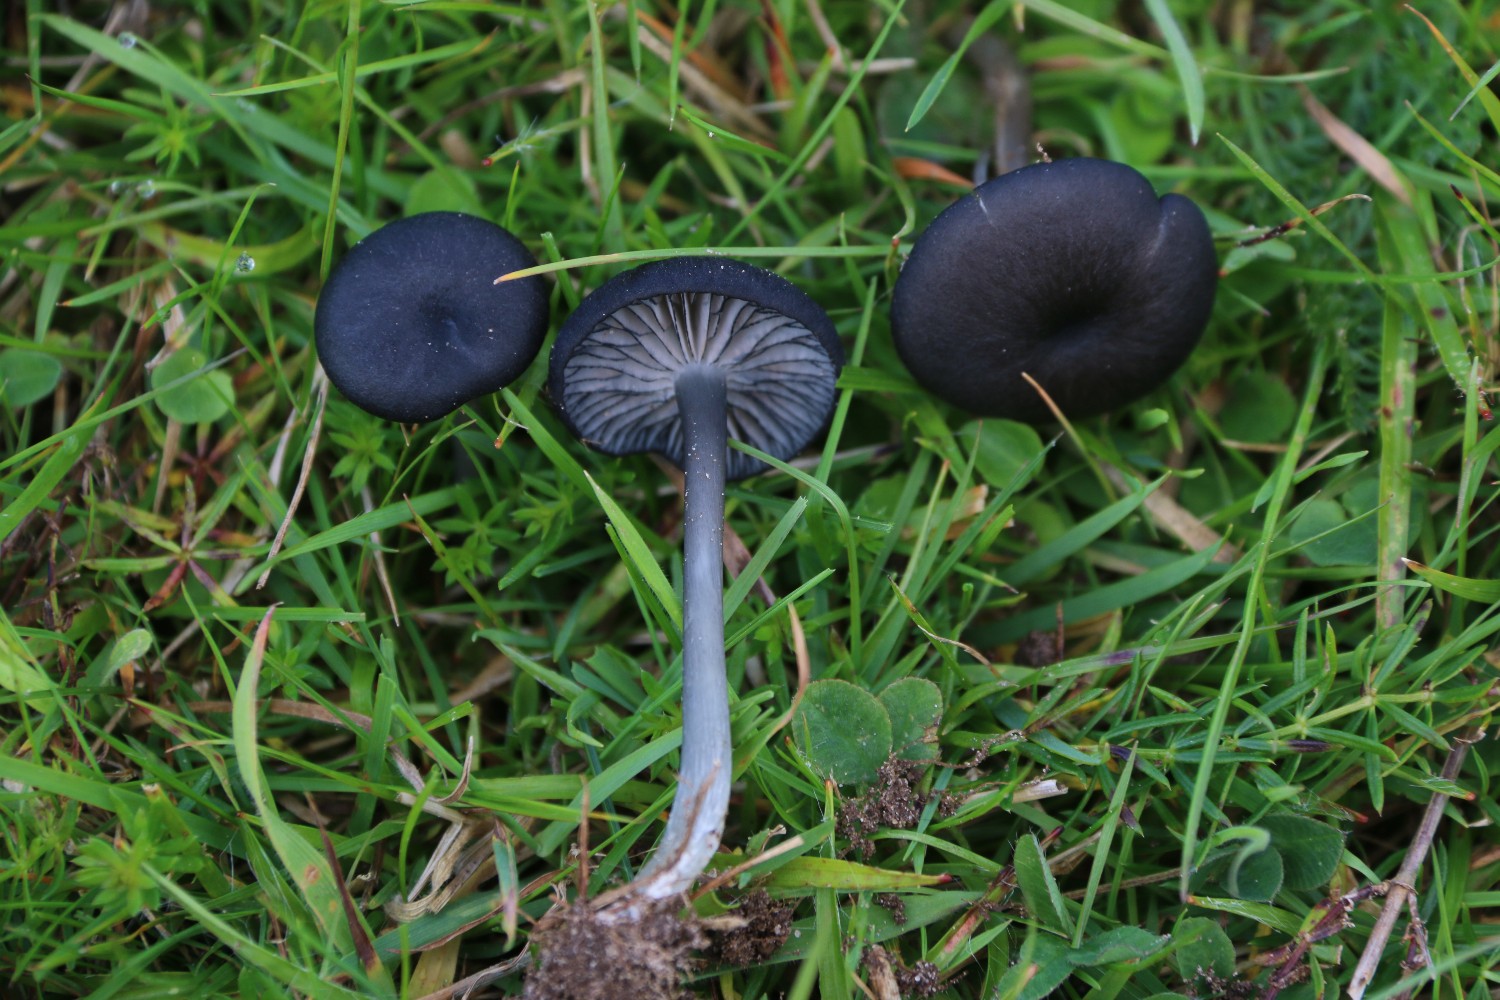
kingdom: Fungi
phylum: Basidiomycota
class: Agaricomycetes
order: Agaricales
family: Entolomataceae
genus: Entoloma
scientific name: Entoloma
